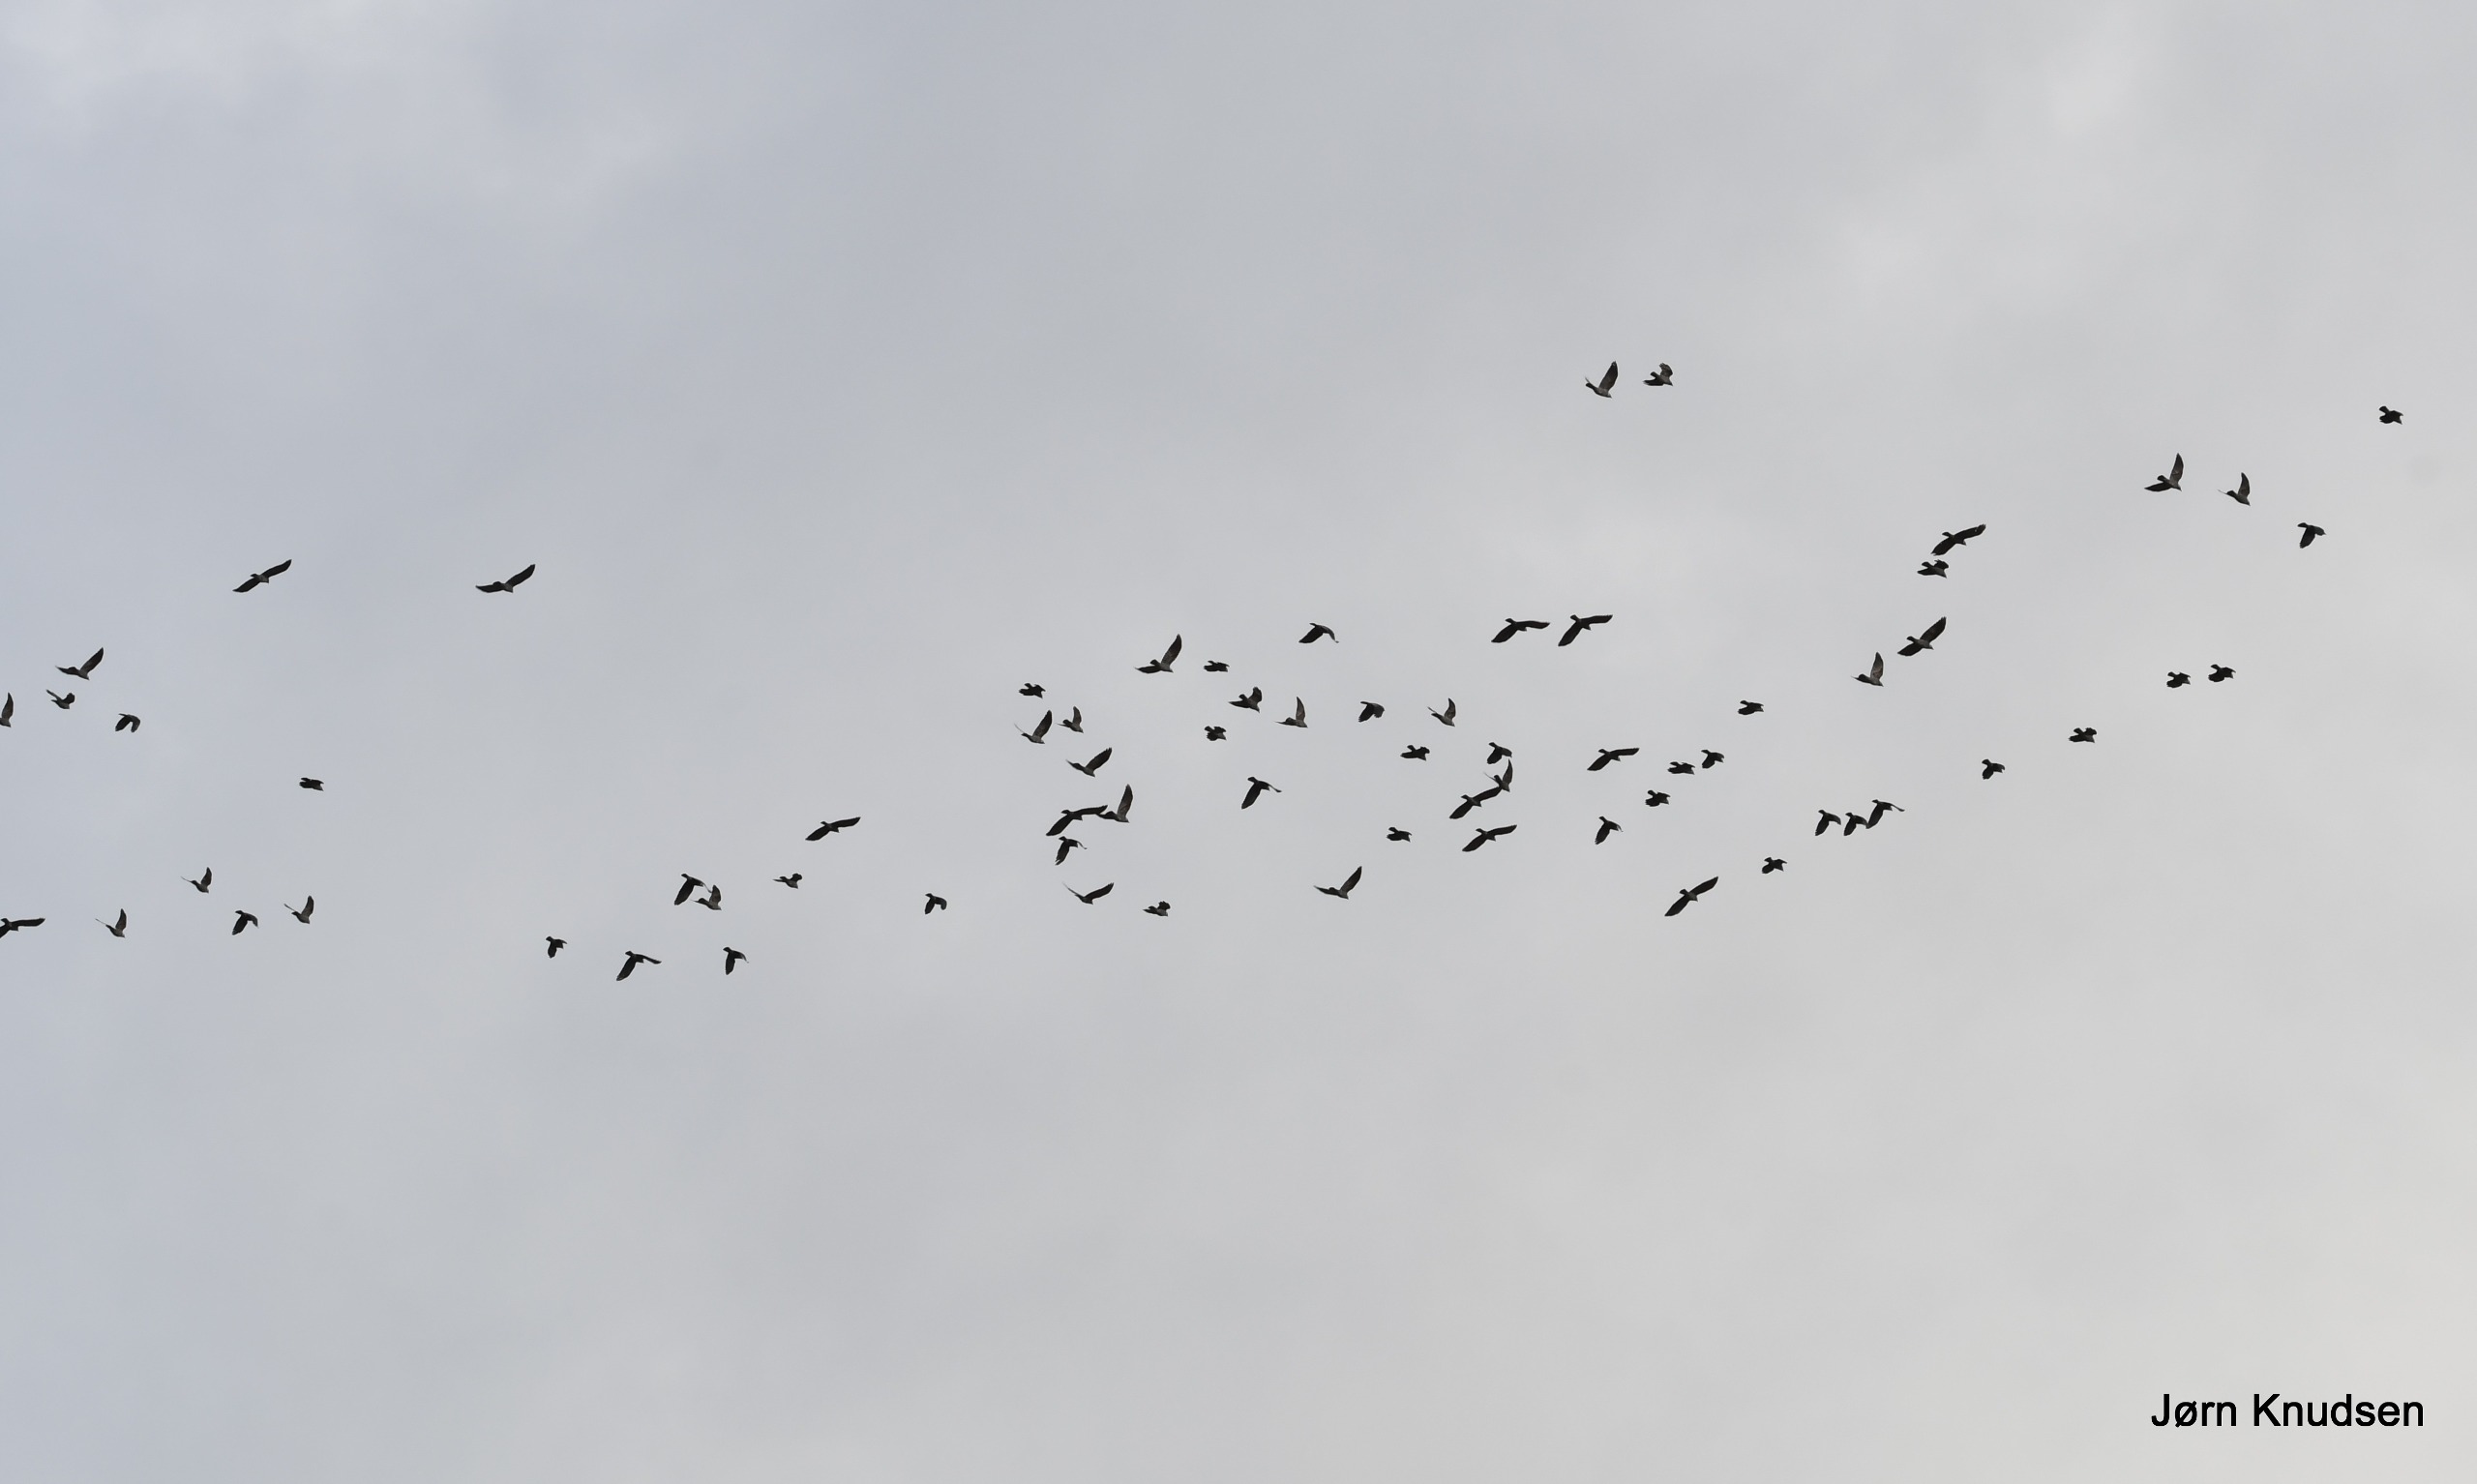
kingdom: Animalia
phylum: Chordata
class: Aves
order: Passeriformes
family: Corvidae
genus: Coloeus
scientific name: Coloeus monedula
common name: Allike
